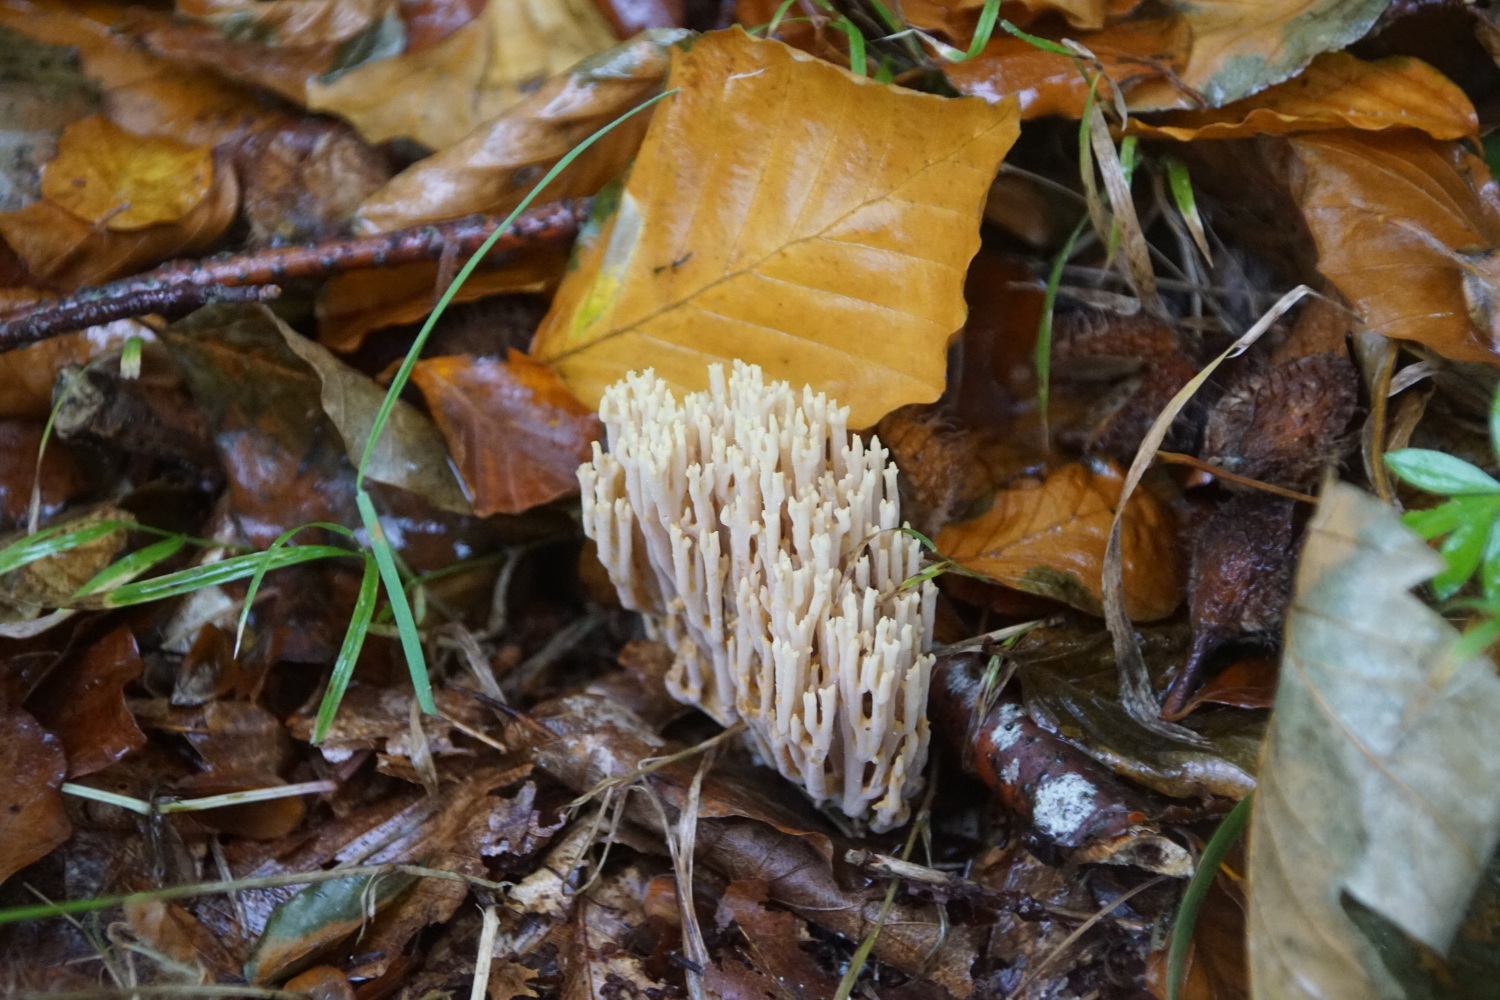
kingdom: Fungi
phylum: Basidiomycota
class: Agaricomycetes
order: Gomphales
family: Gomphaceae
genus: Ramaria
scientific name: Ramaria stricta
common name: rank koralsvamp
